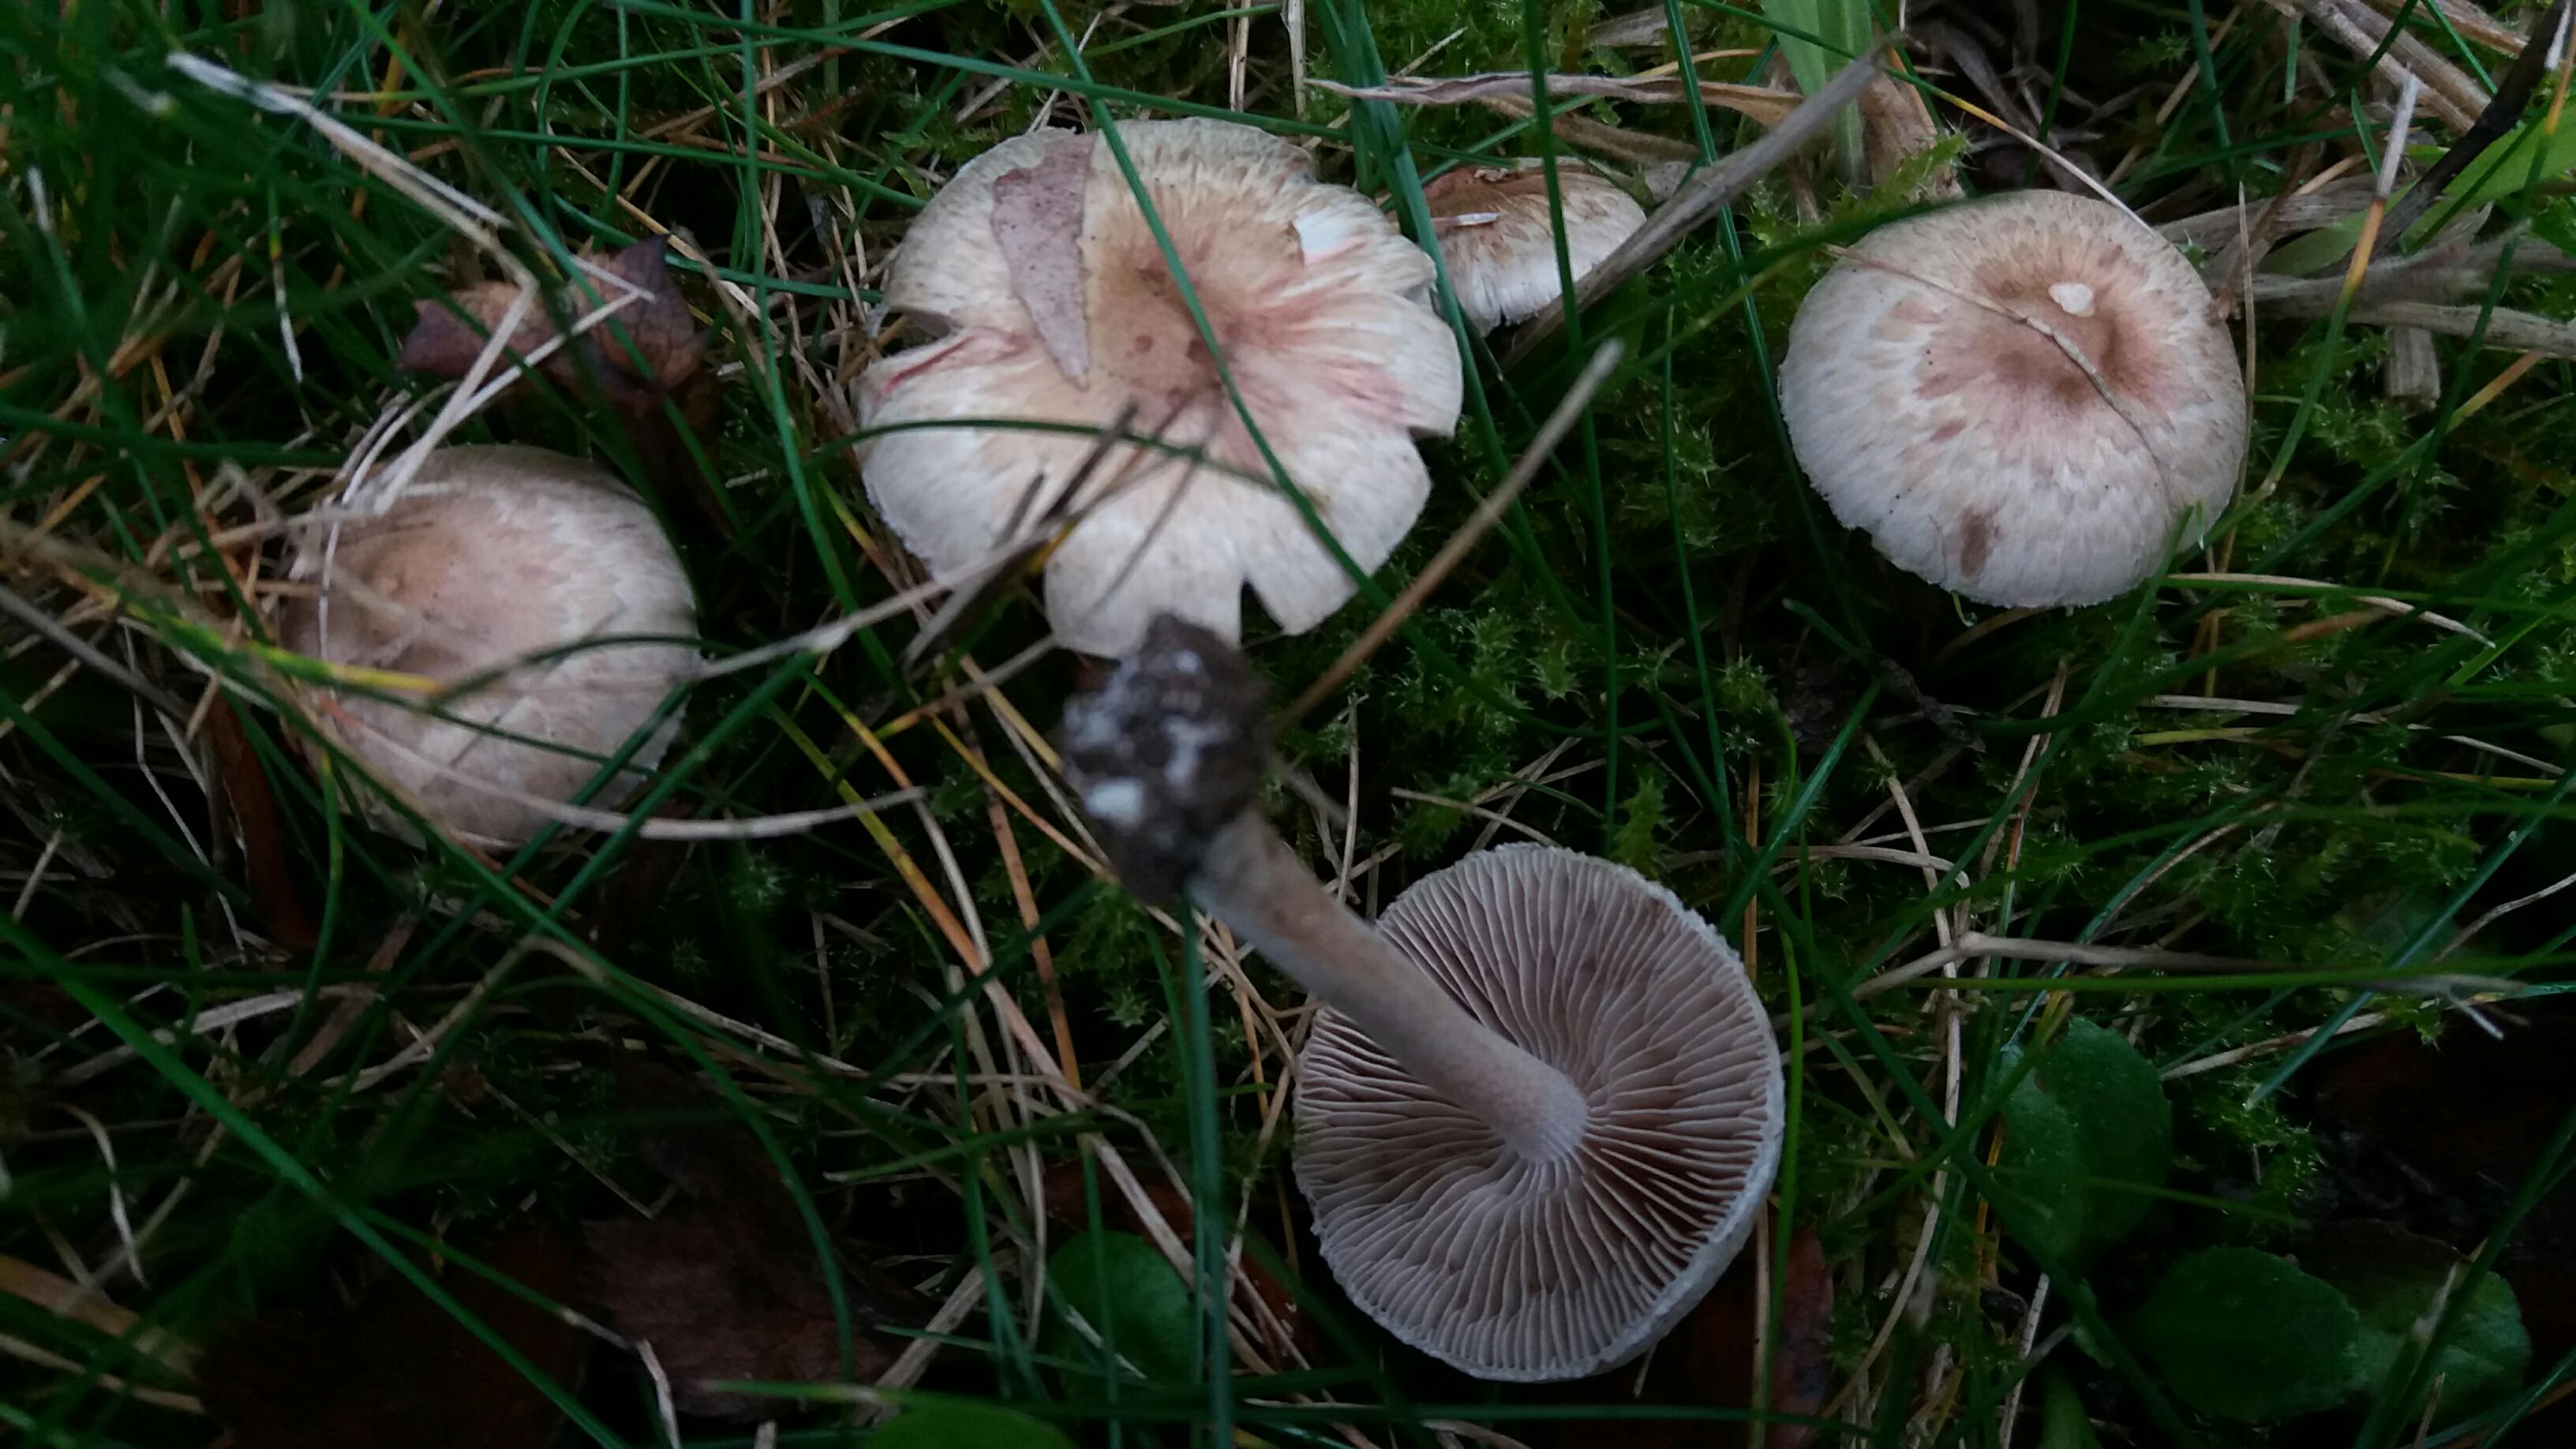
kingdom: Fungi
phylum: Basidiomycota
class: Agaricomycetes
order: Agaricales
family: Inocybaceae
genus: Inocybe
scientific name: Inocybe
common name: trævlhat
